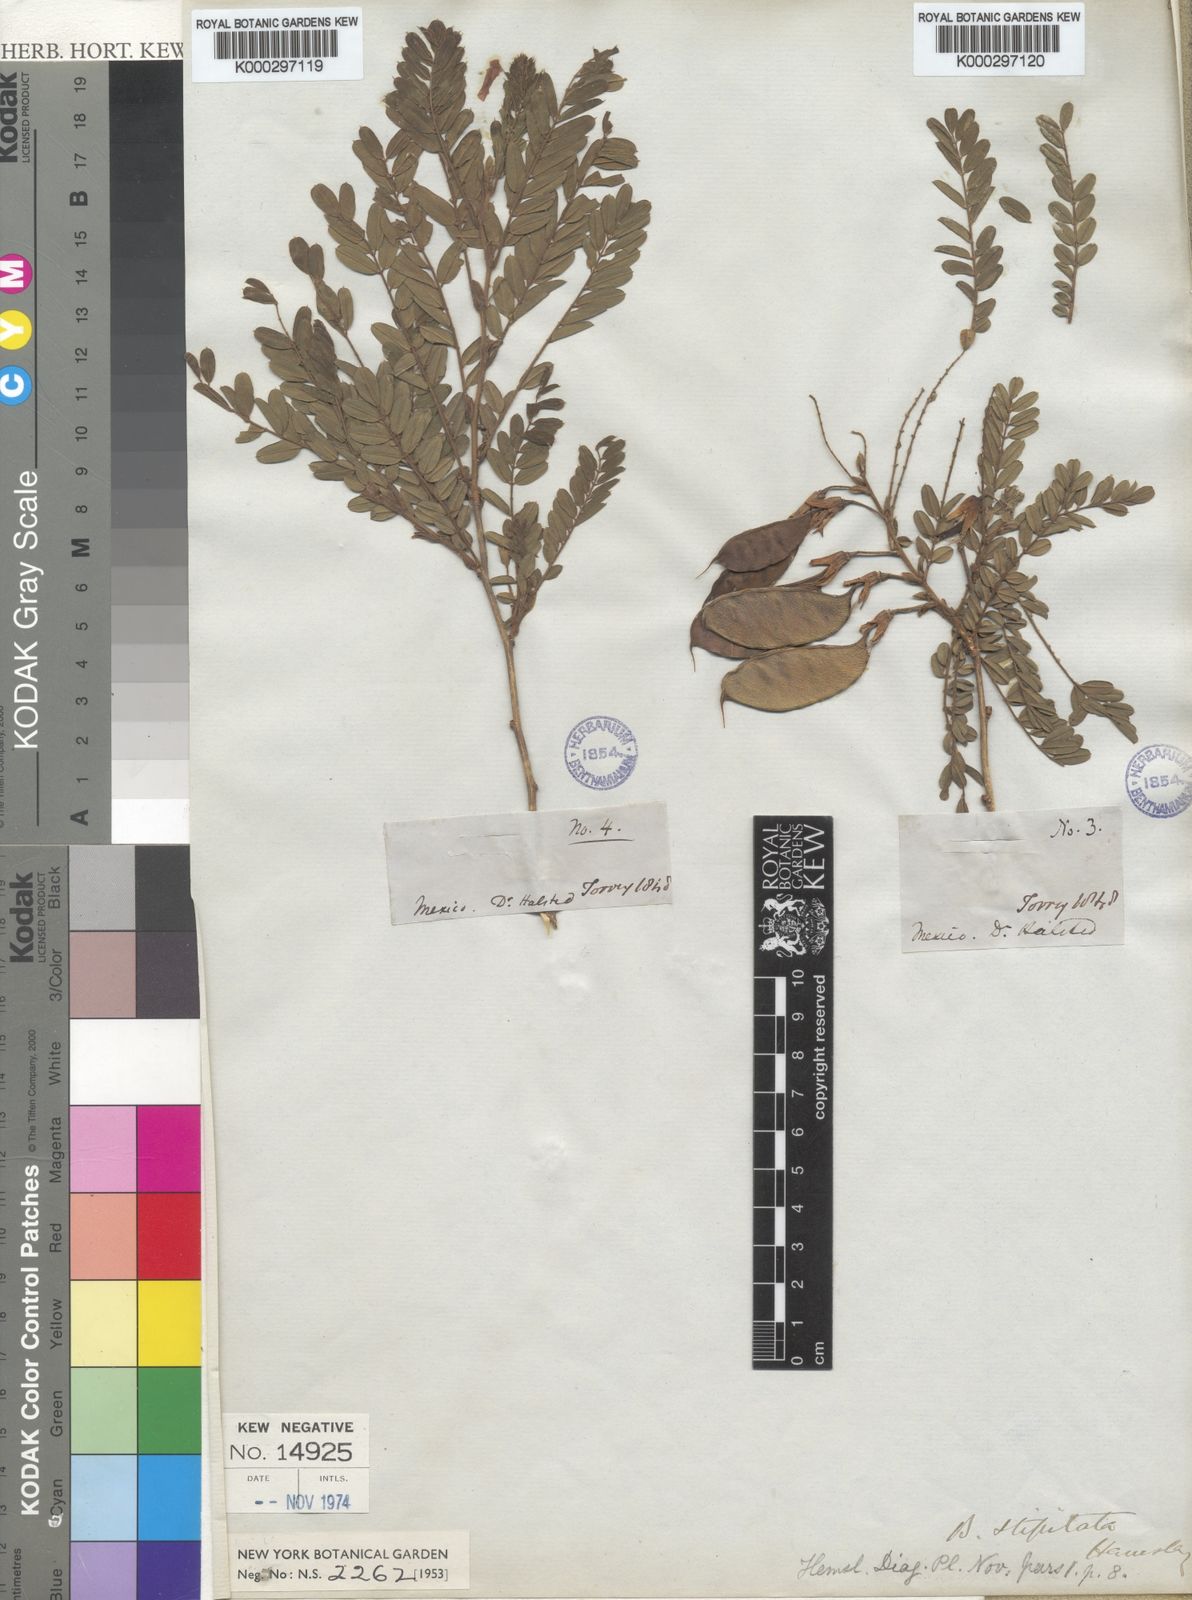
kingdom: Plantae
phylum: Tracheophyta
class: Magnoliopsida
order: Fabales
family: Fabaceae
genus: Brongniartia
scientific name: Brongniartia magnibracteata
